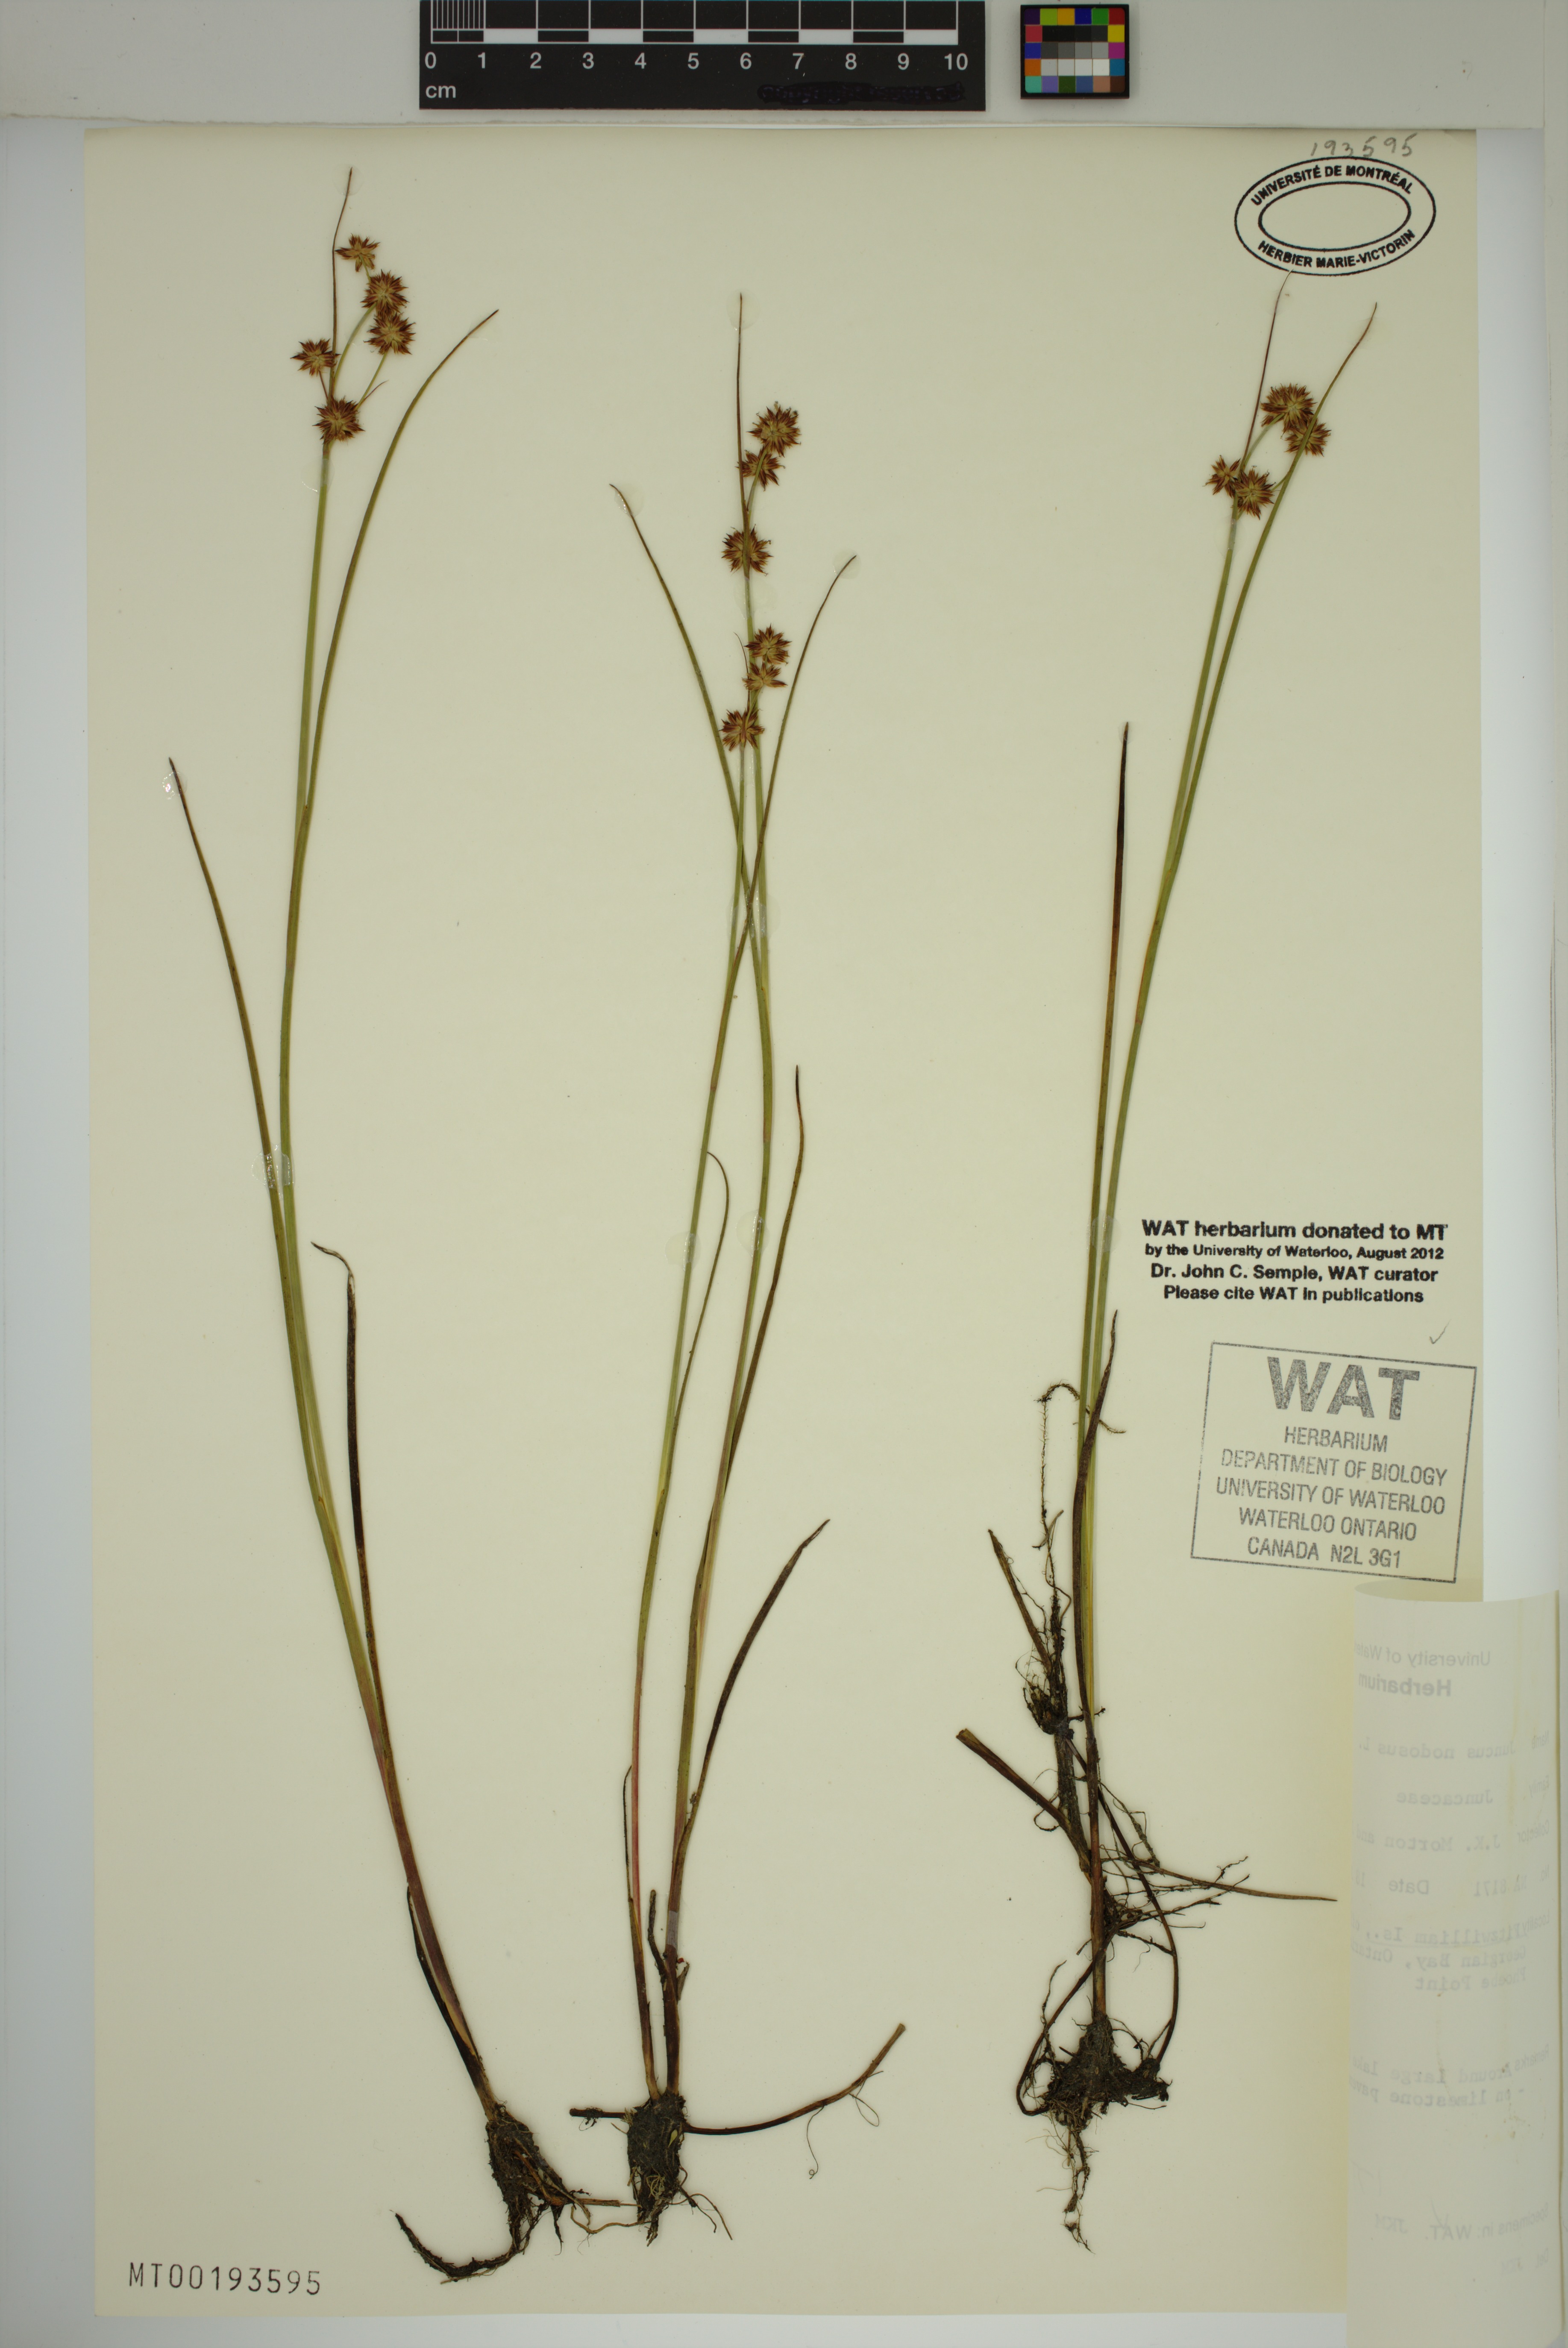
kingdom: Plantae
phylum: Tracheophyta
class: Liliopsida
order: Poales
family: Juncaceae
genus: Juncus
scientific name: Juncus nodosus
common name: Knotted rush
